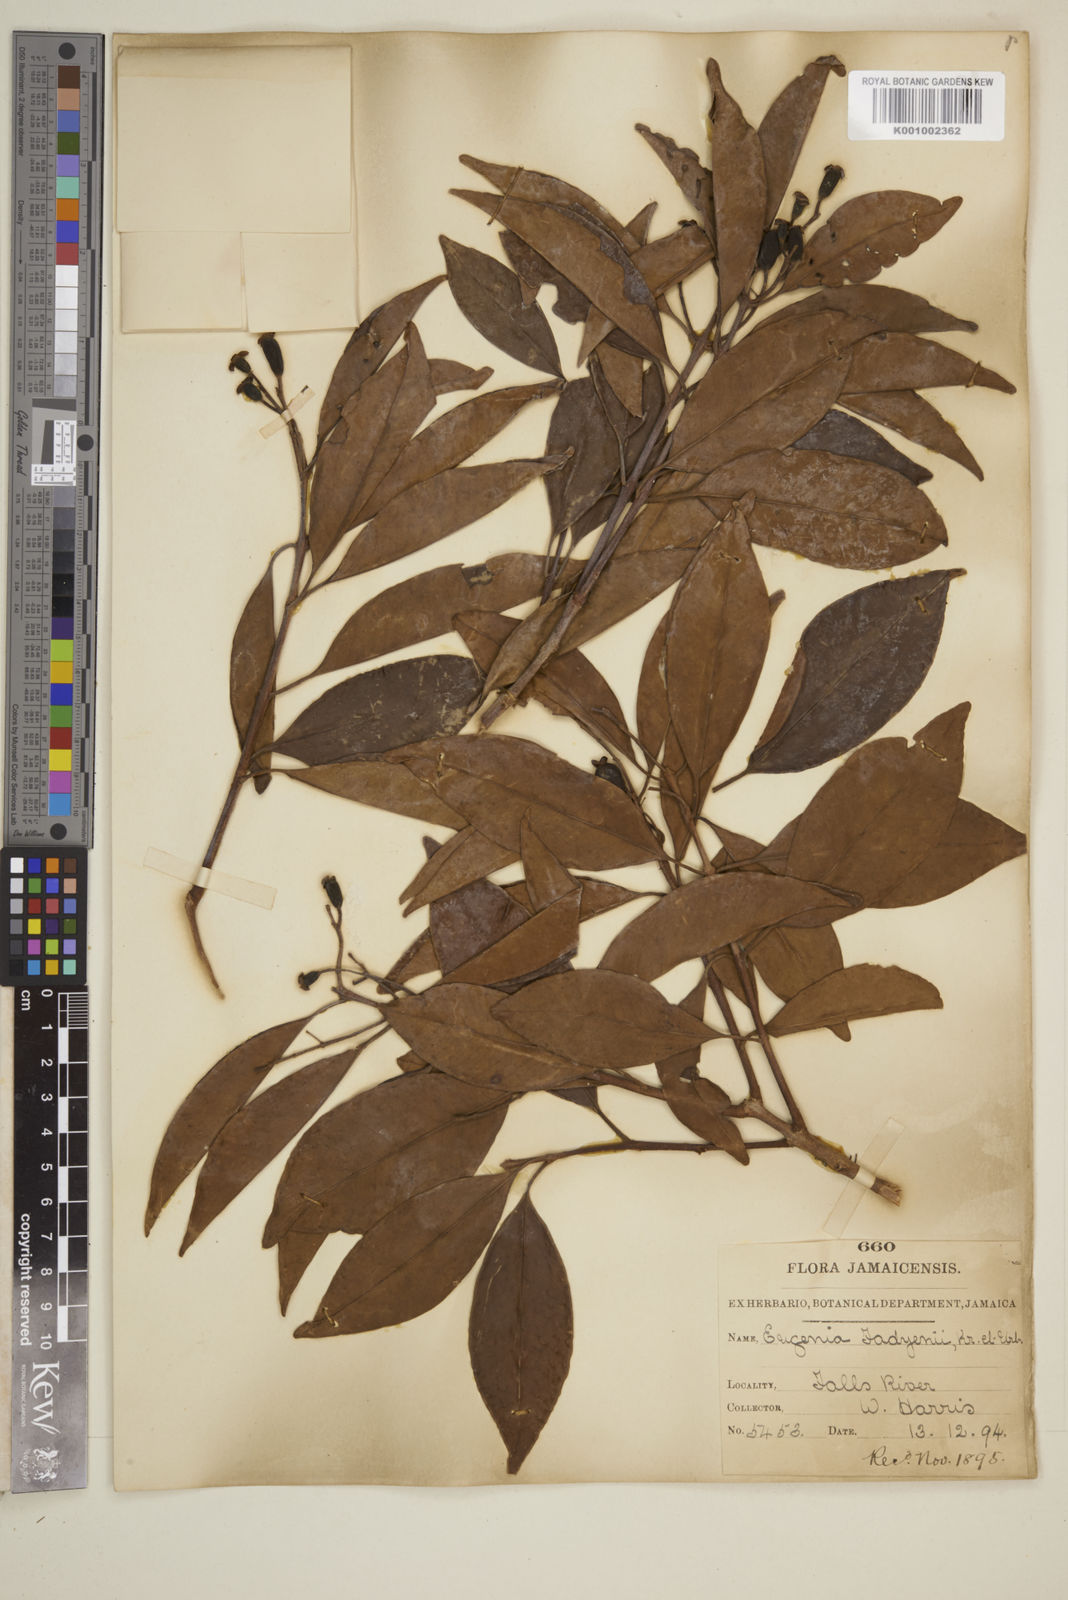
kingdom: Plantae
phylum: Tracheophyta
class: Magnoliopsida
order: Myrtales
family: Myrtaceae
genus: Eugenia
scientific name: Eugenia aeruginea
